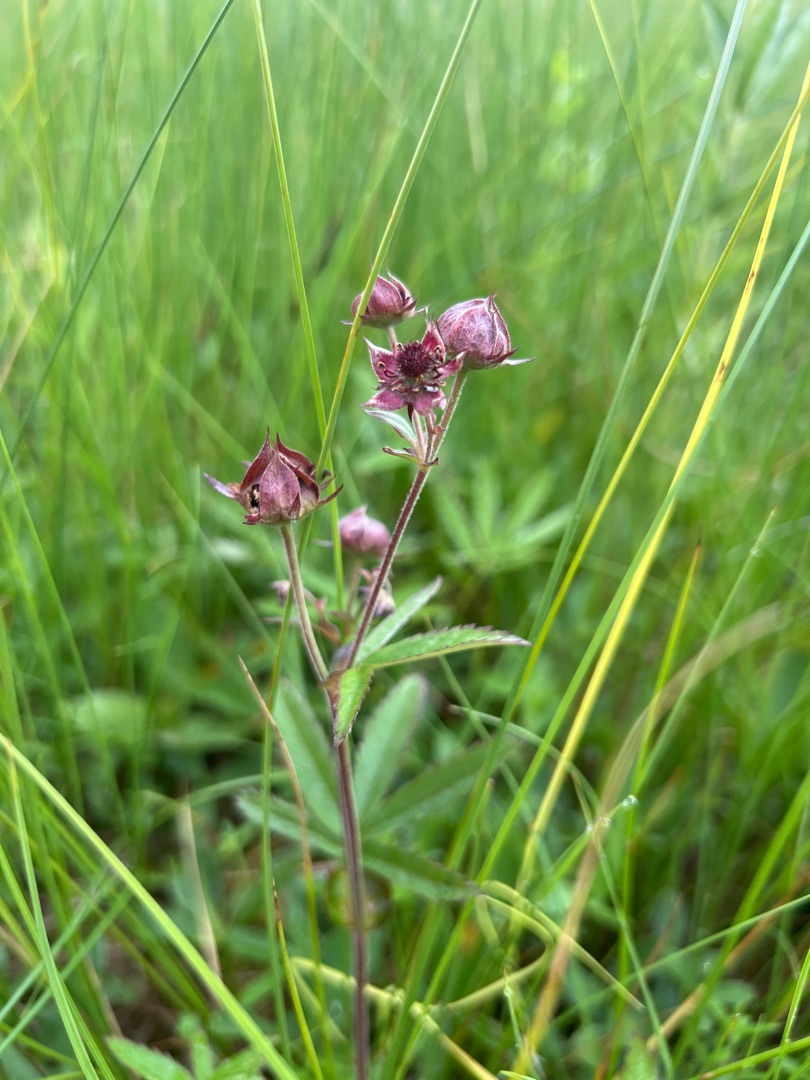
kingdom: Plantae
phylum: Tracheophyta
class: Magnoliopsida
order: Rosales
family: Rosaceae
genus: Comarum
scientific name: Comarum palustre
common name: Kragefod
